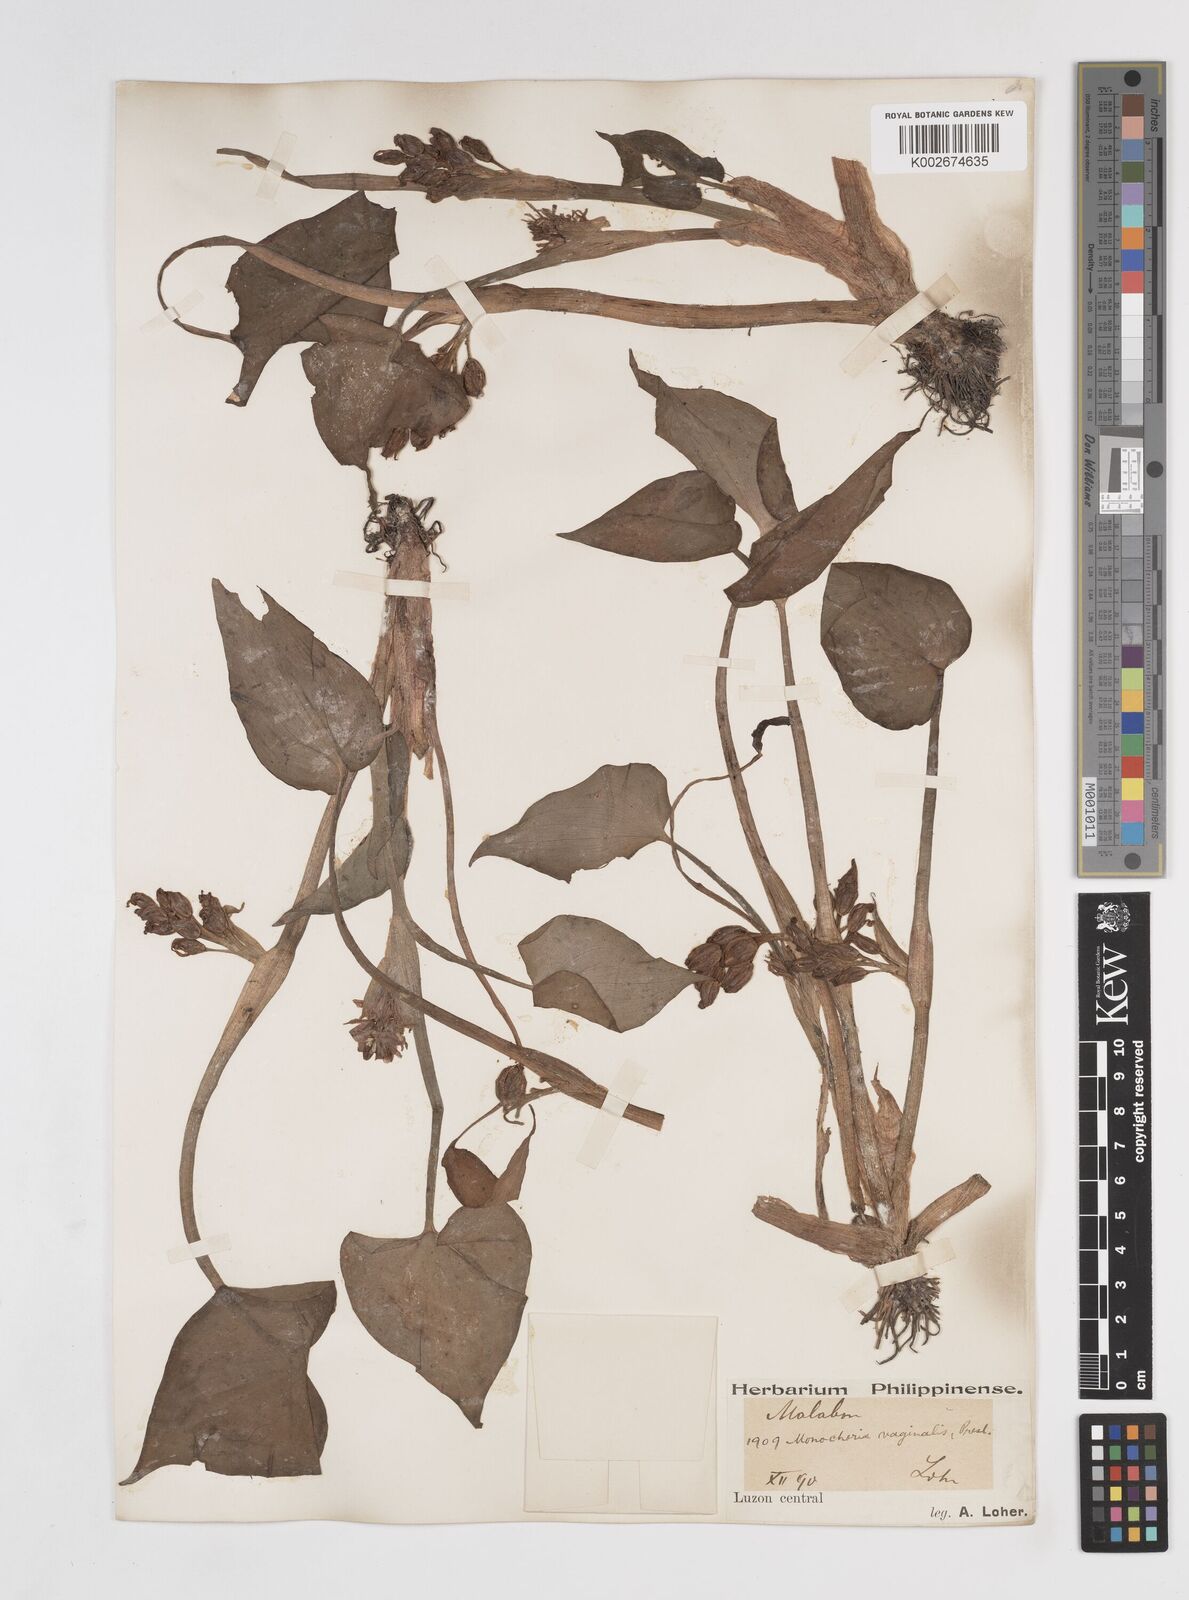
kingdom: Plantae
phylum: Tracheophyta
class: Liliopsida
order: Commelinales
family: Pontederiaceae
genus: Pontederia
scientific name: Pontederia vaginalis
